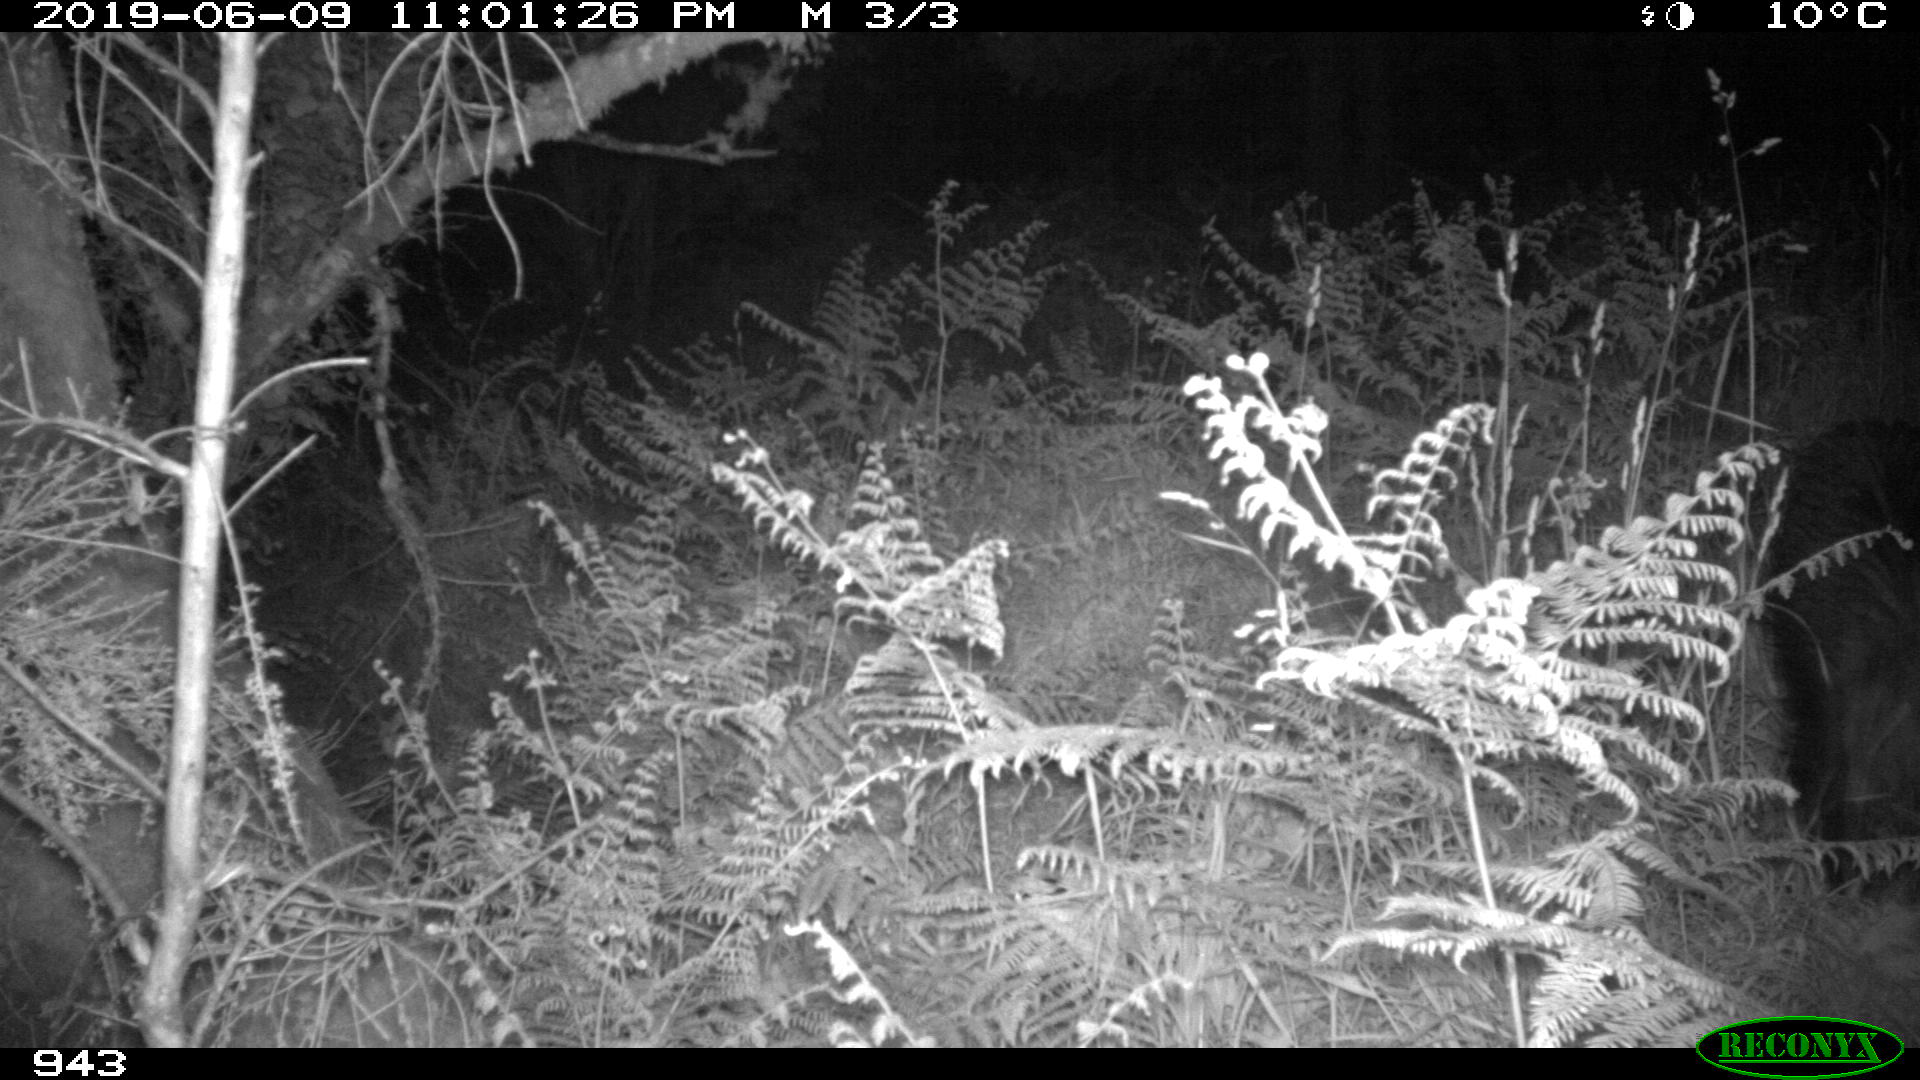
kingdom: Animalia
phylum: Chordata
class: Mammalia
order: Artiodactyla
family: Suidae
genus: Sus
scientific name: Sus scrofa
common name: Wild boar
